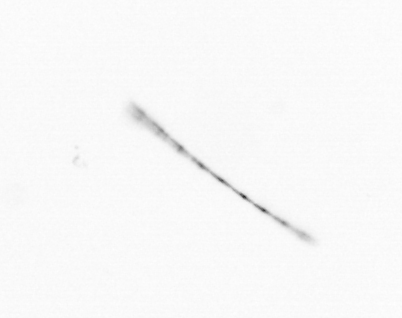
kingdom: Chromista
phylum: Ochrophyta
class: Bacillariophyceae
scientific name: Bacillariophyceae
